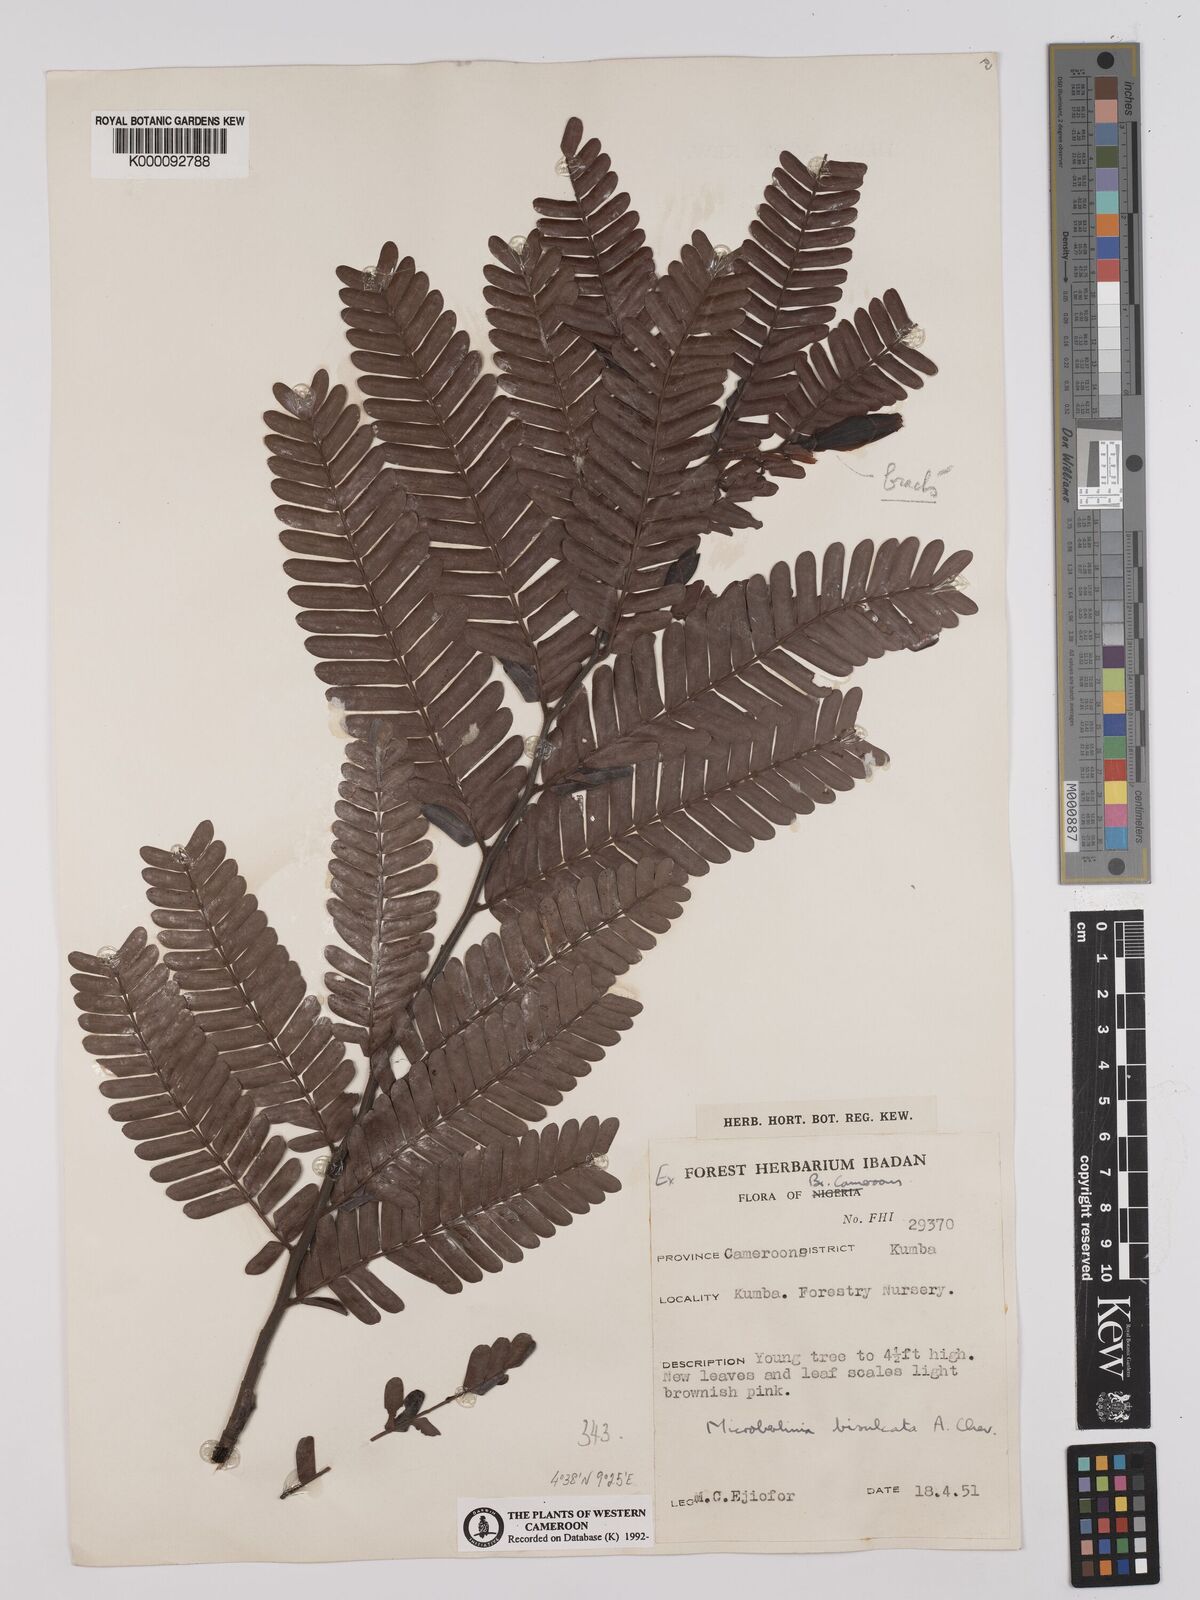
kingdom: Plantae
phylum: Tracheophyta
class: Magnoliopsida
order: Fabales
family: Fabaceae
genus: Microberlinia
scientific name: Microberlinia bisulcata
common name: Zingana
